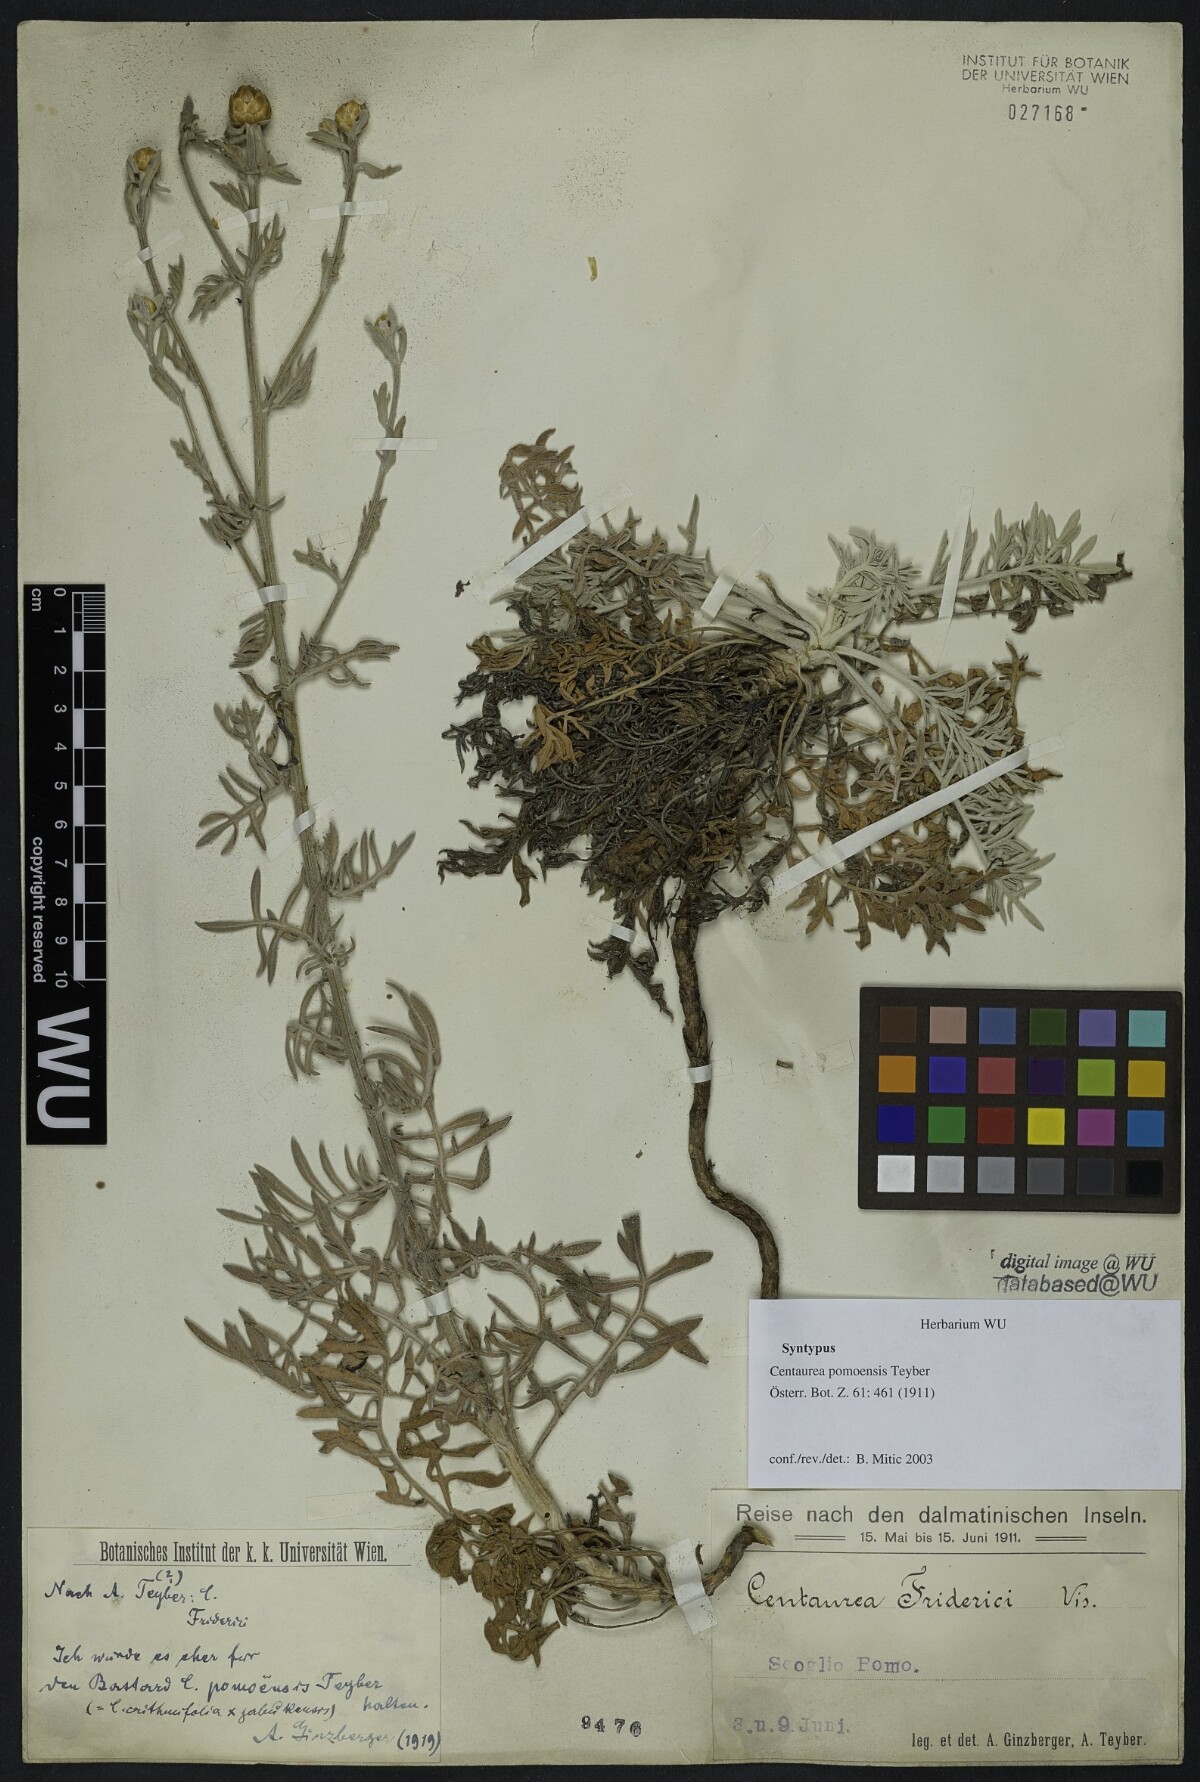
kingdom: Plantae
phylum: Tracheophyta
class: Magnoliopsida
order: Asterales
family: Asteraceae
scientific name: Asteraceae
